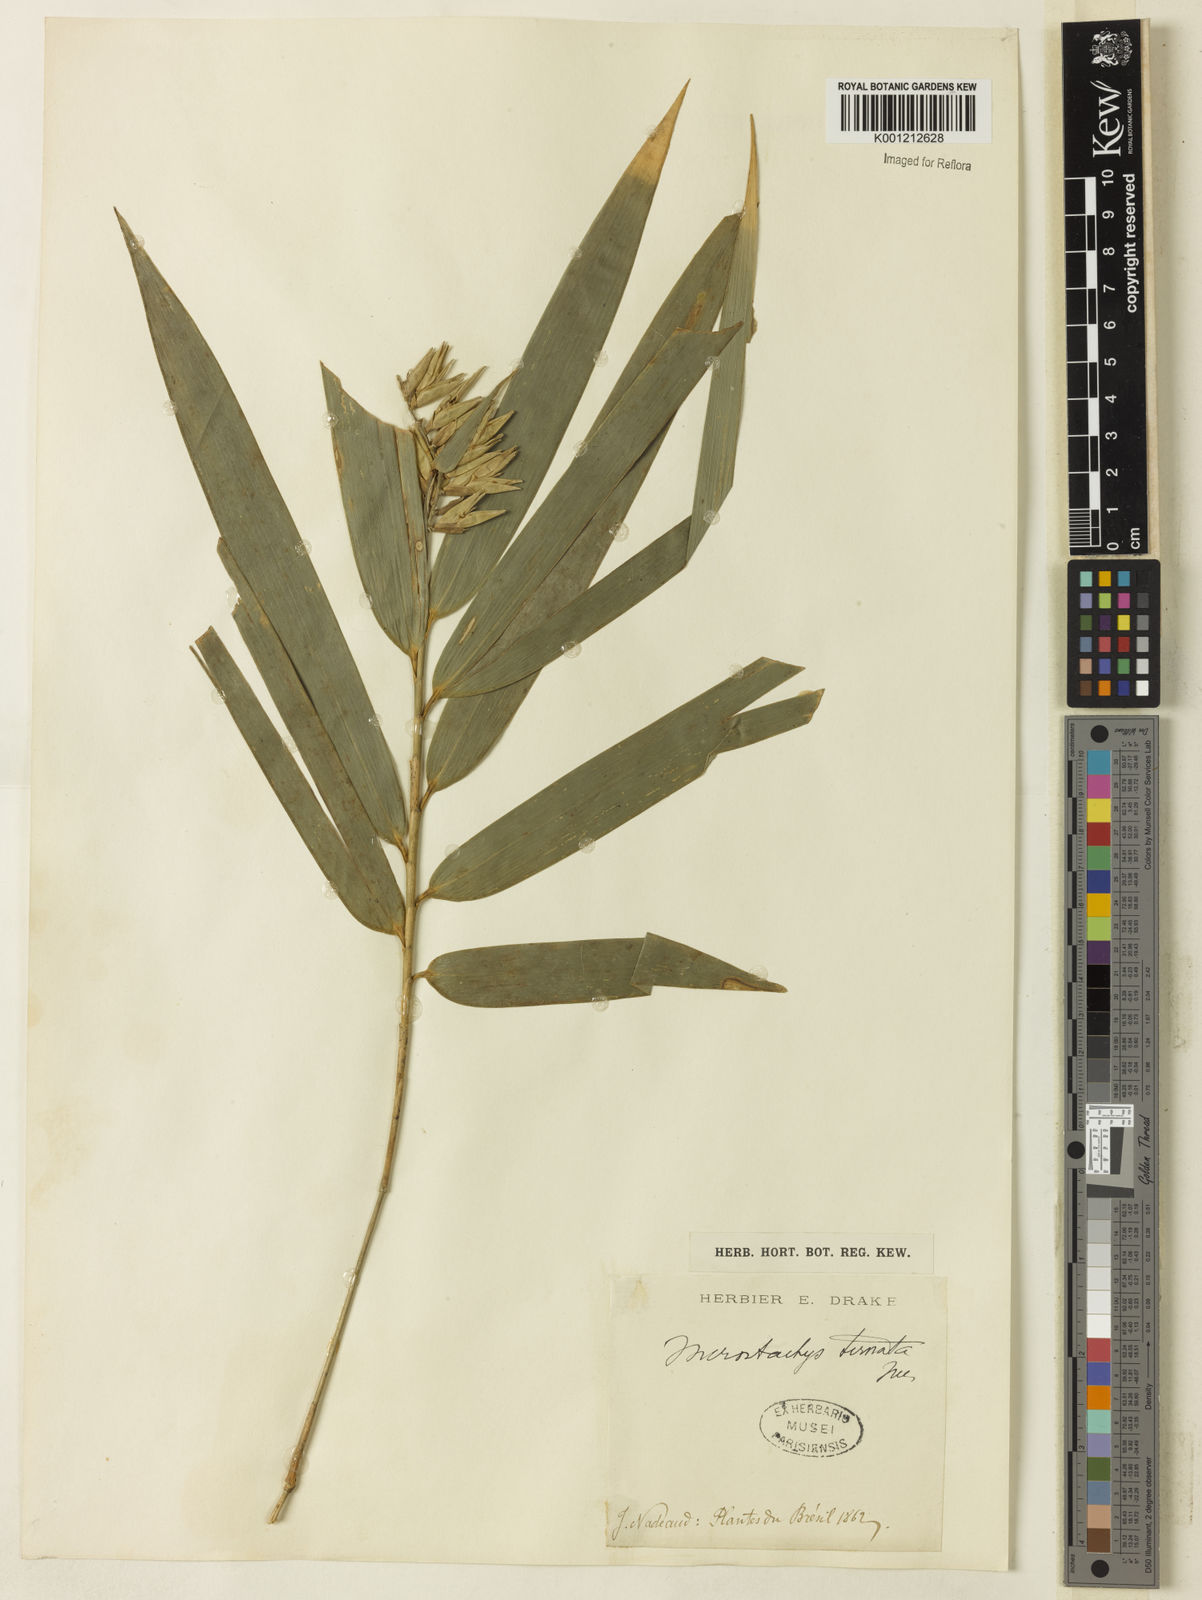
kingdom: Plantae
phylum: Tracheophyta
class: Liliopsida
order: Poales
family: Poaceae
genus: Merostachys
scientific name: Merostachys
